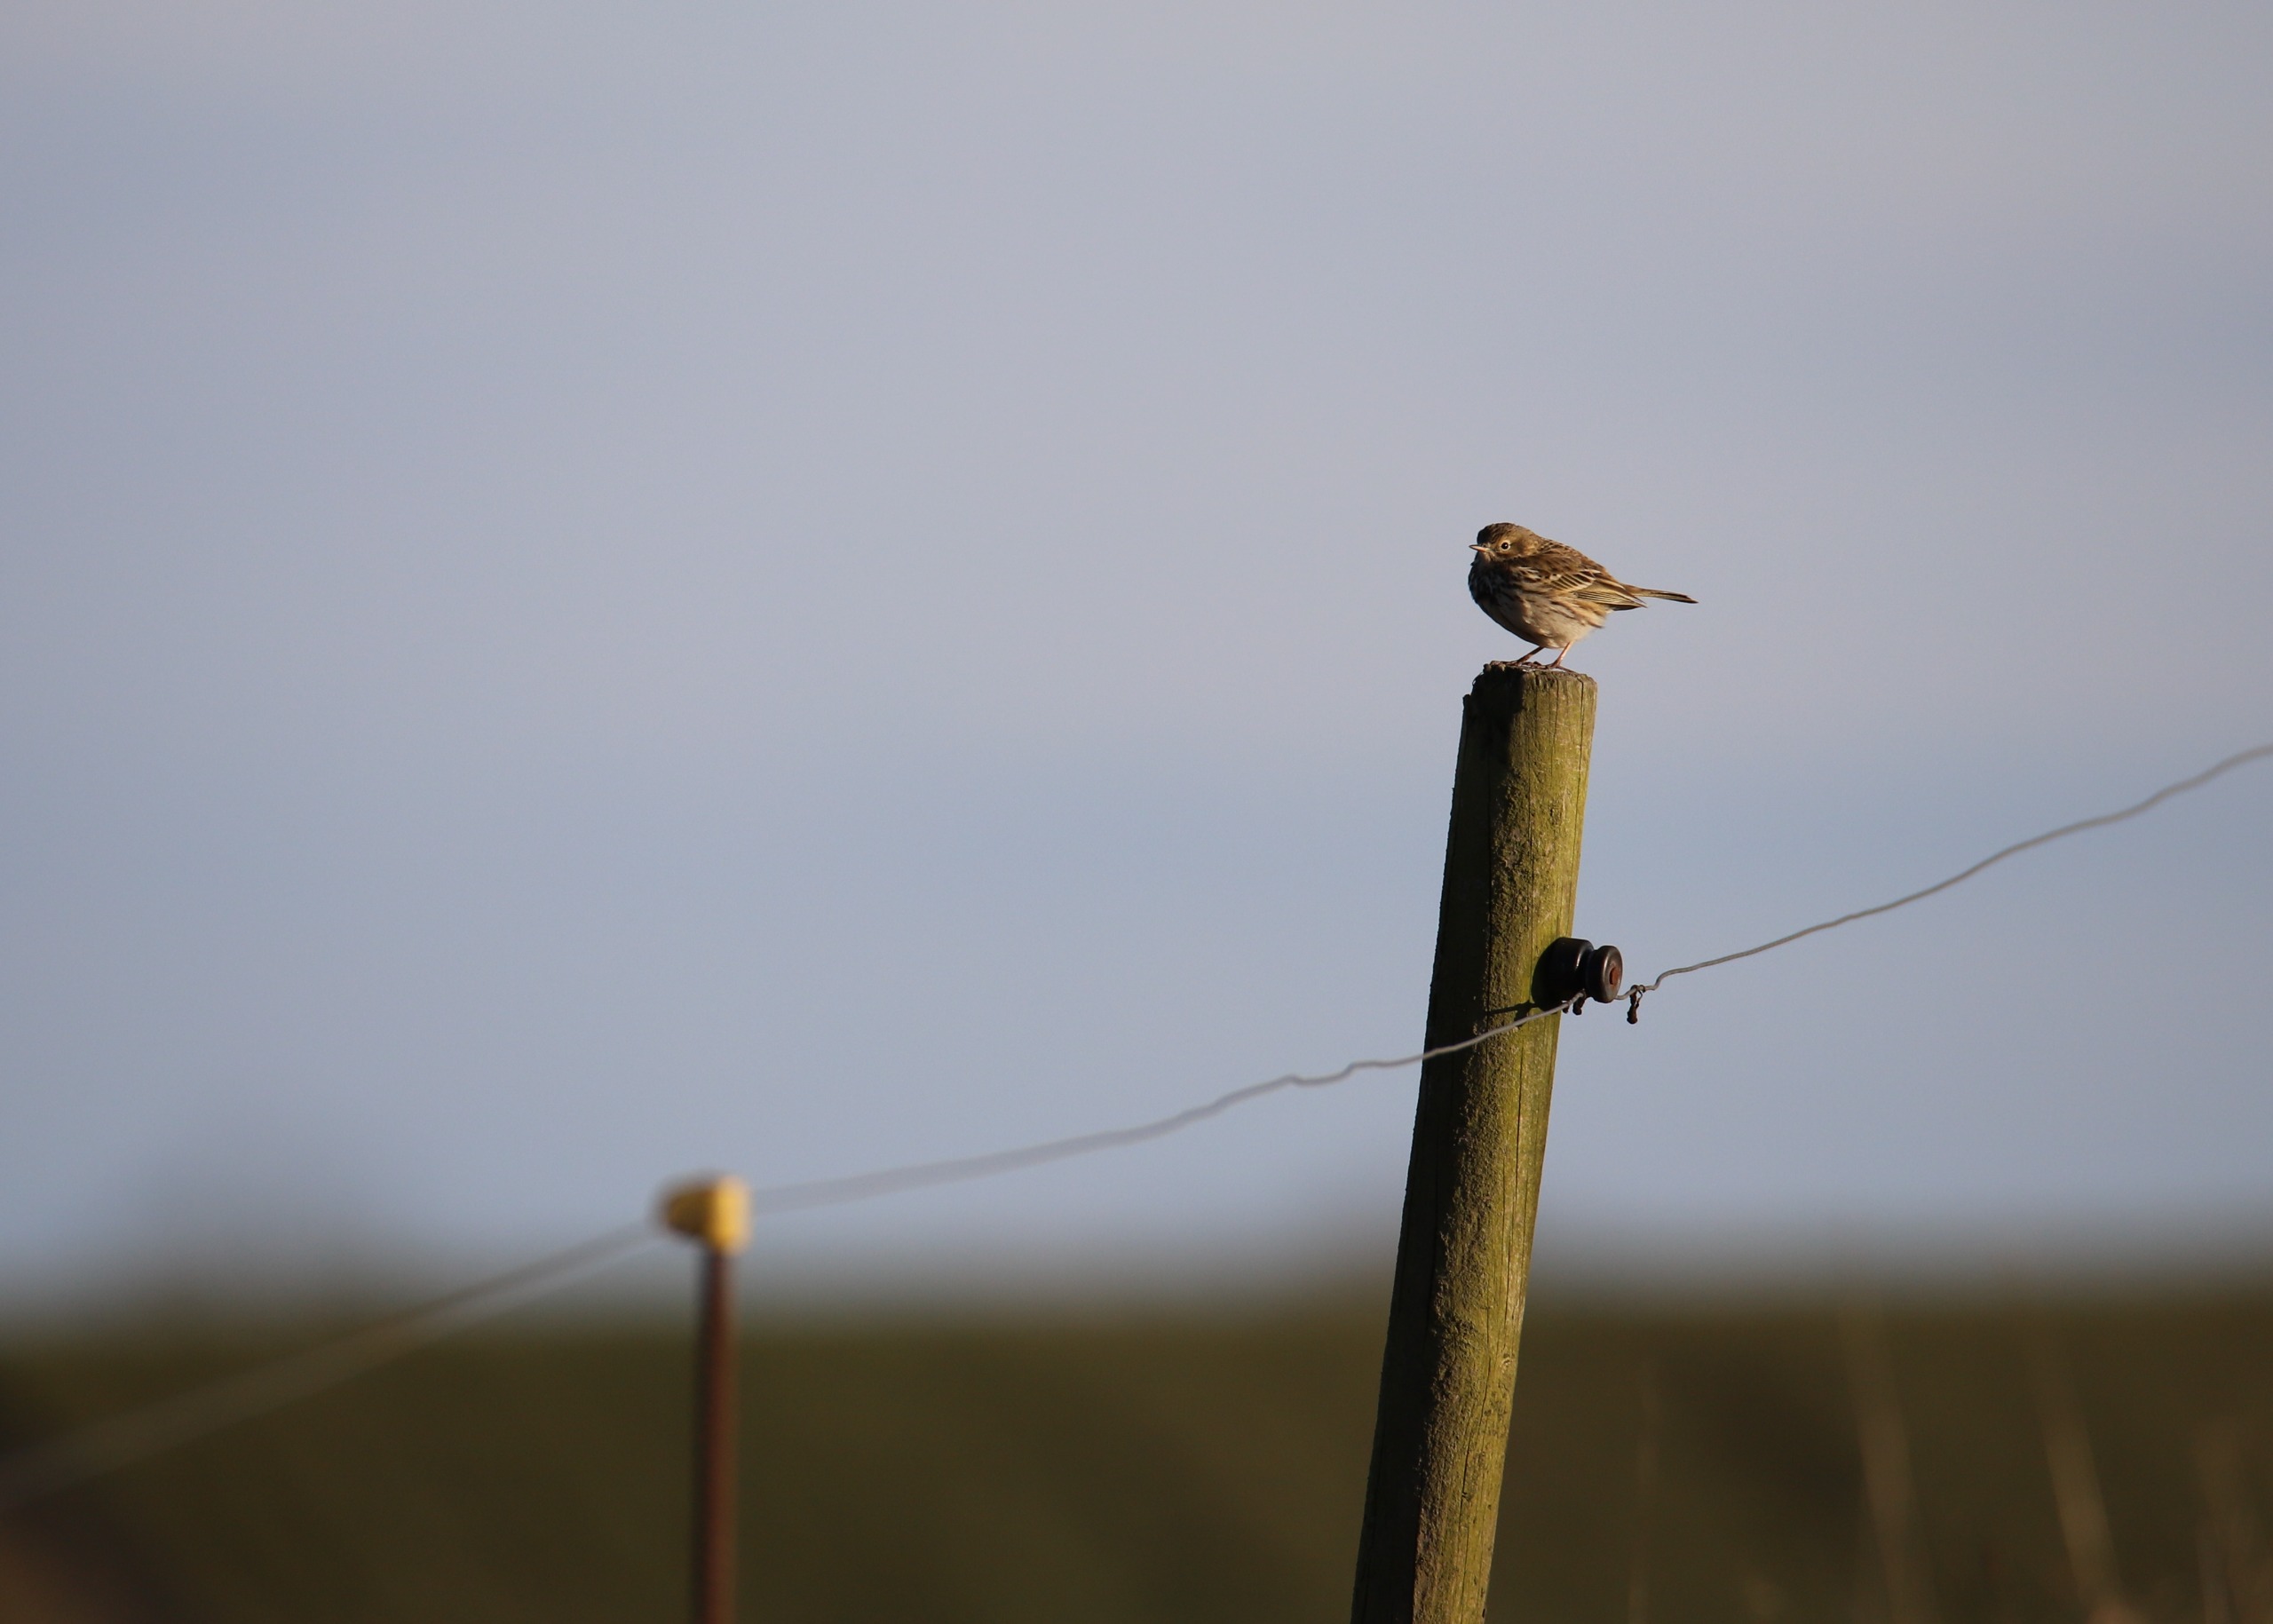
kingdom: Animalia
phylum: Chordata
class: Aves
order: Passeriformes
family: Motacillidae
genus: Anthus
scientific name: Anthus pratensis
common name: Engpiber
